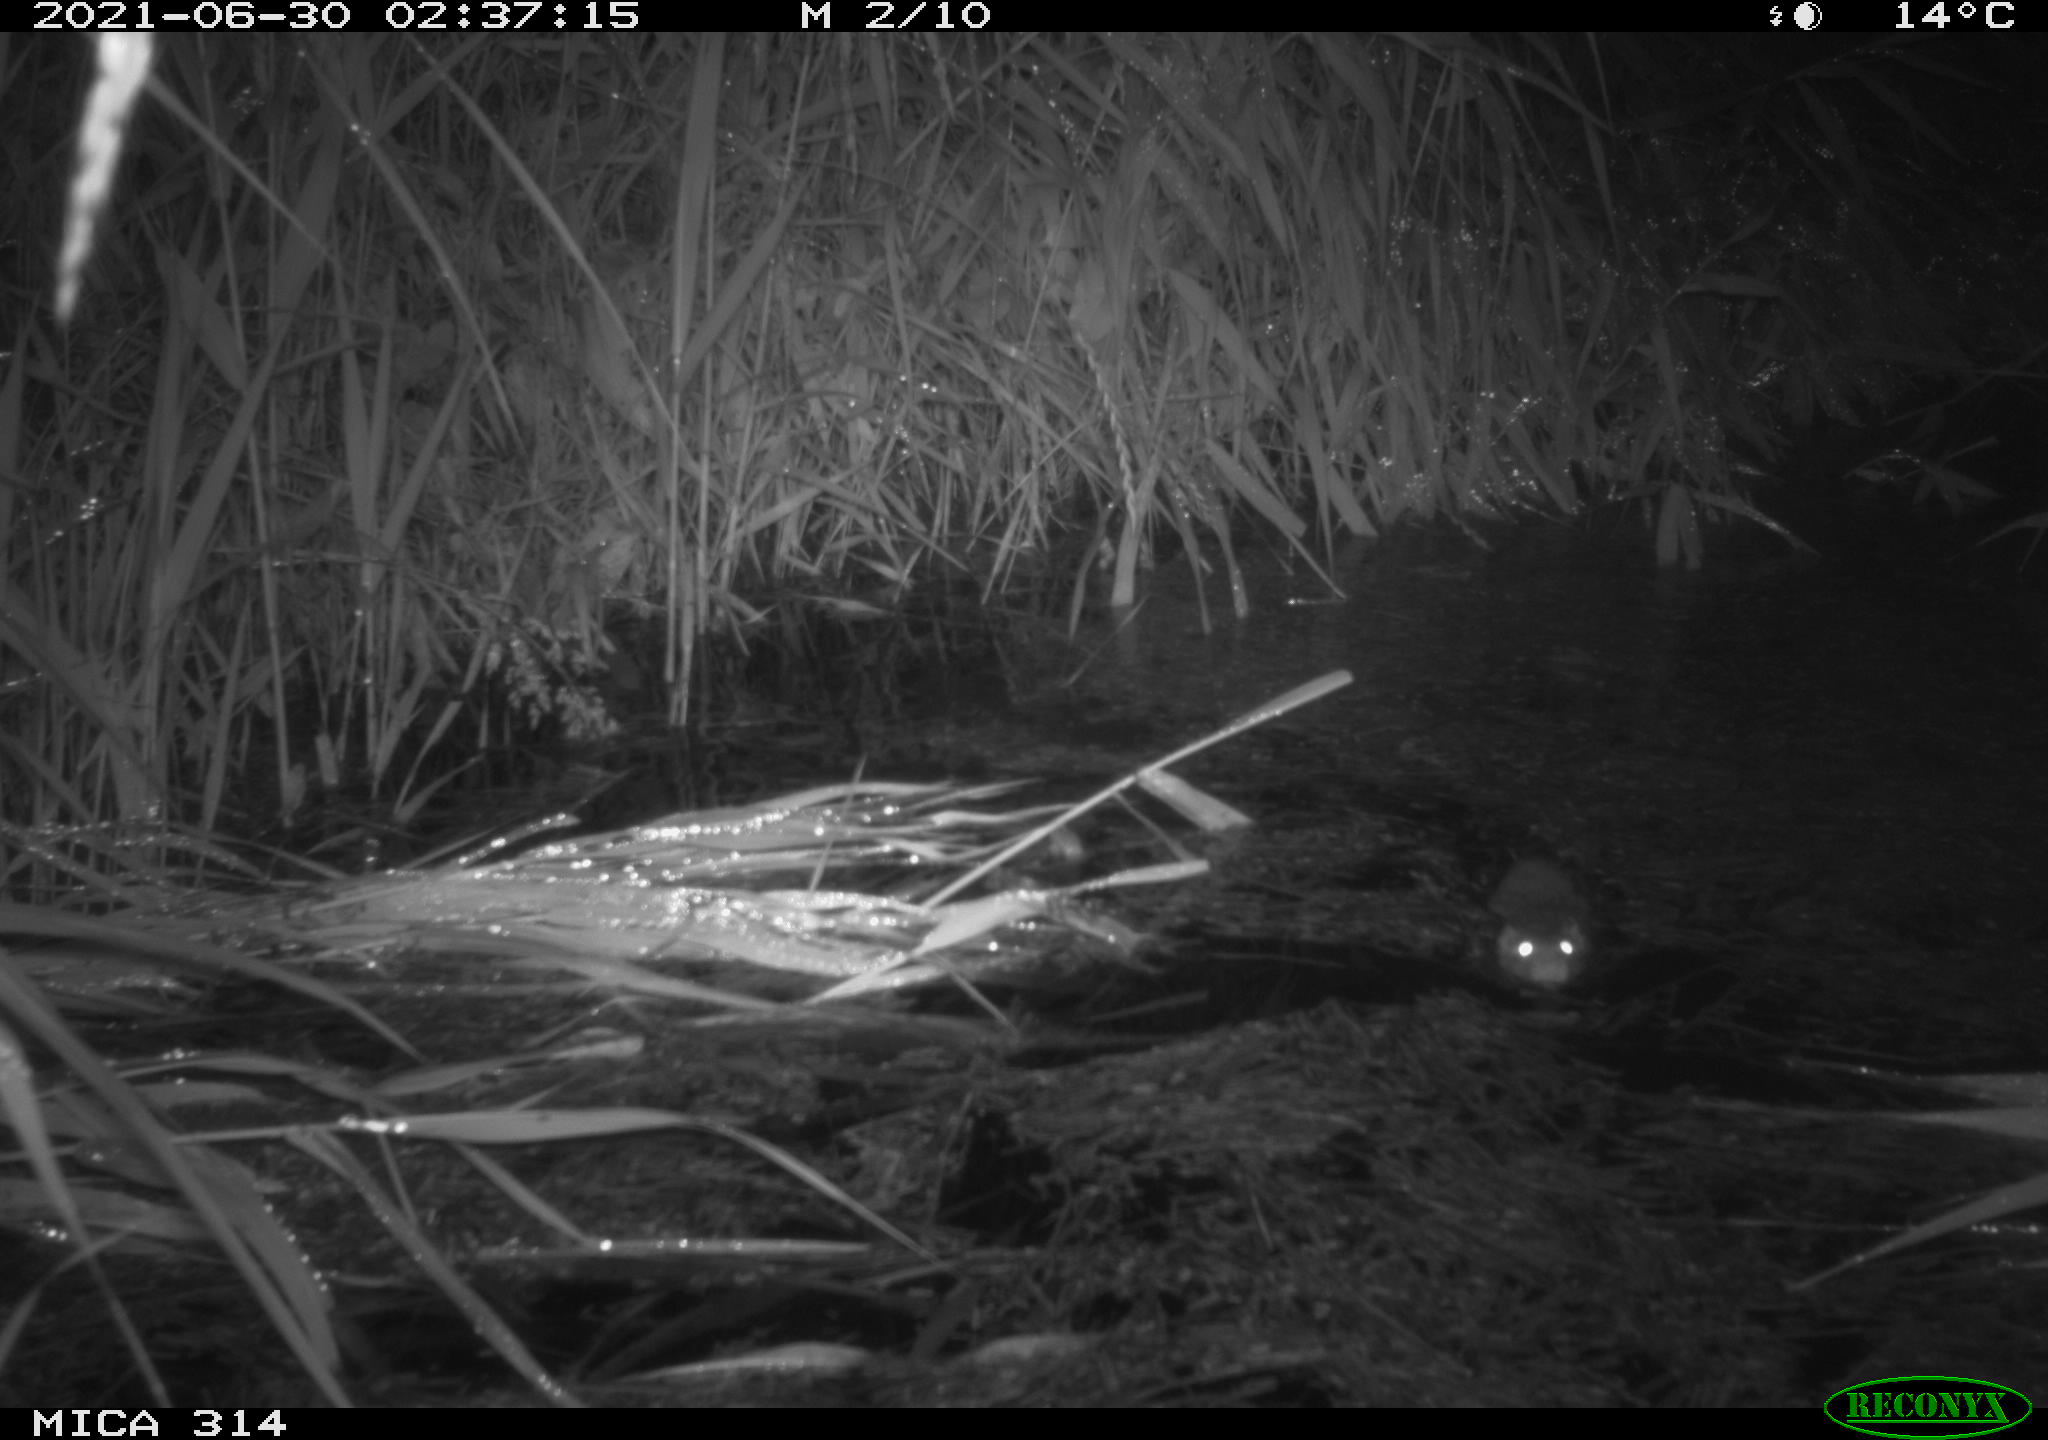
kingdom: Animalia
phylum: Chordata
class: Mammalia
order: Rodentia
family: Muridae
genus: Rattus
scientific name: Rattus norvegicus
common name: Brown rat
